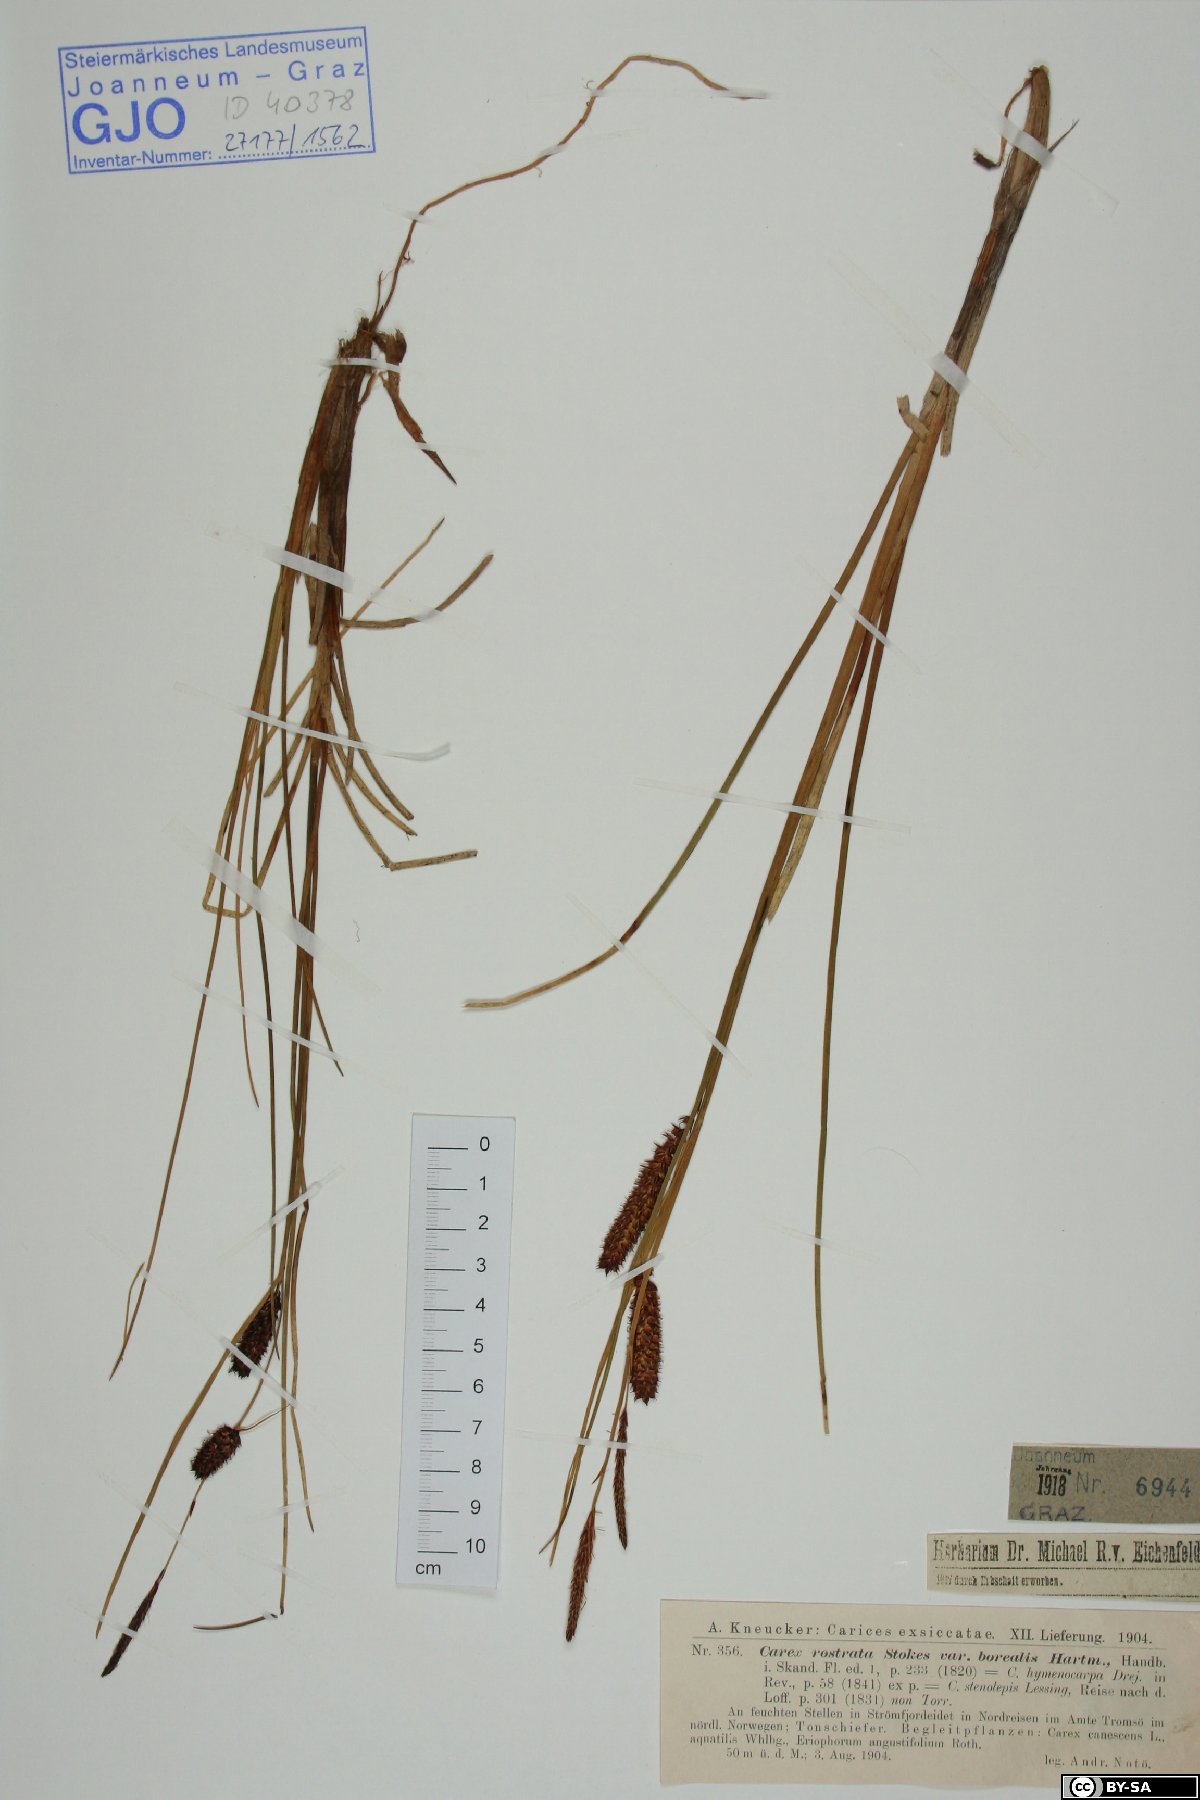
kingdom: Plantae
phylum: Tracheophyta
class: Liliopsida
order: Poales
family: Cyperaceae
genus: Carex
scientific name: Carex saamica
